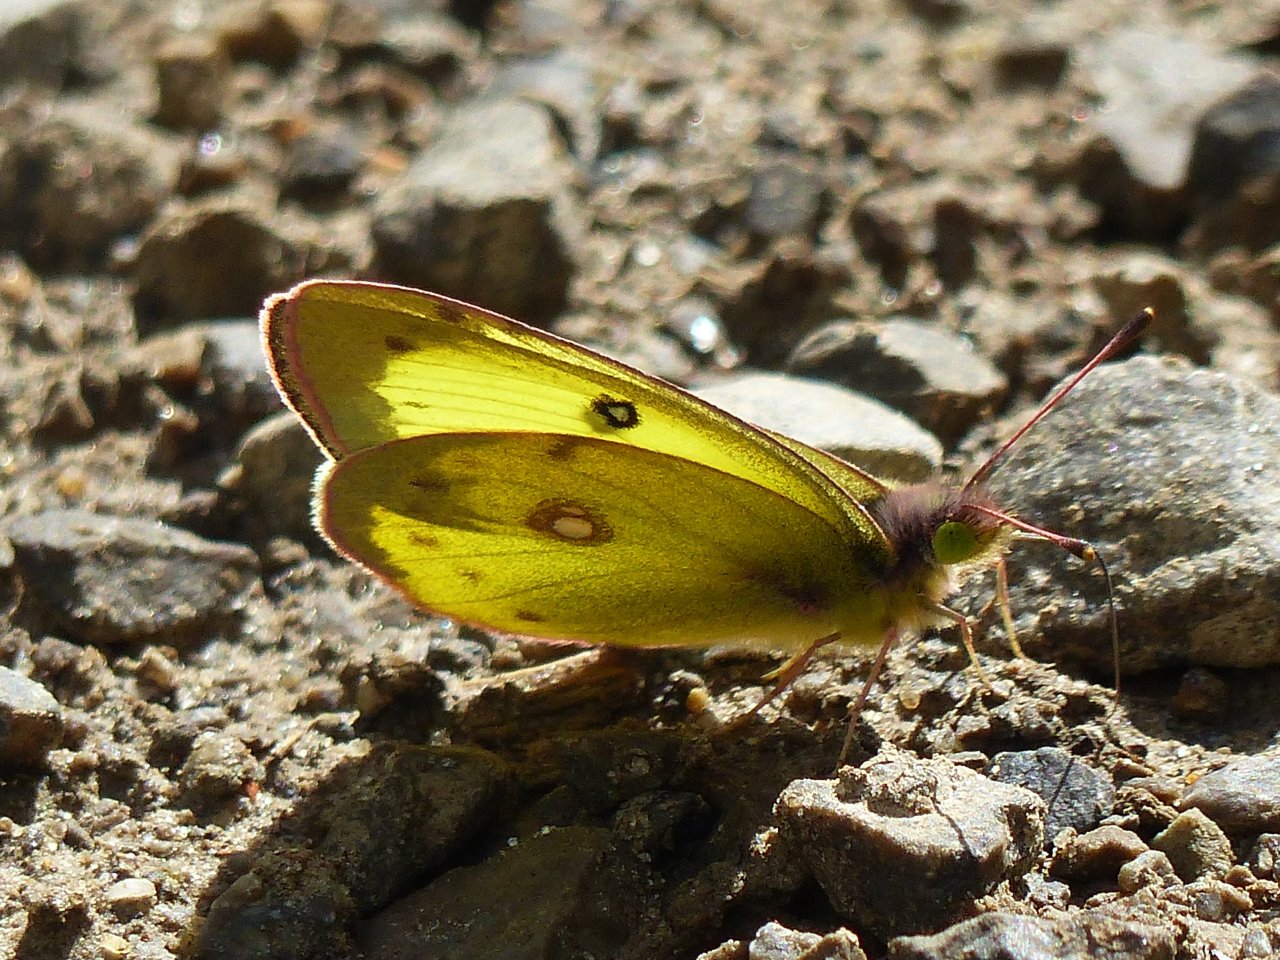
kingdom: Animalia
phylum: Arthropoda
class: Insecta
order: Lepidoptera
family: Pieridae
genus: Colias
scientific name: Colias philodice
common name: Clouded Sulphur
